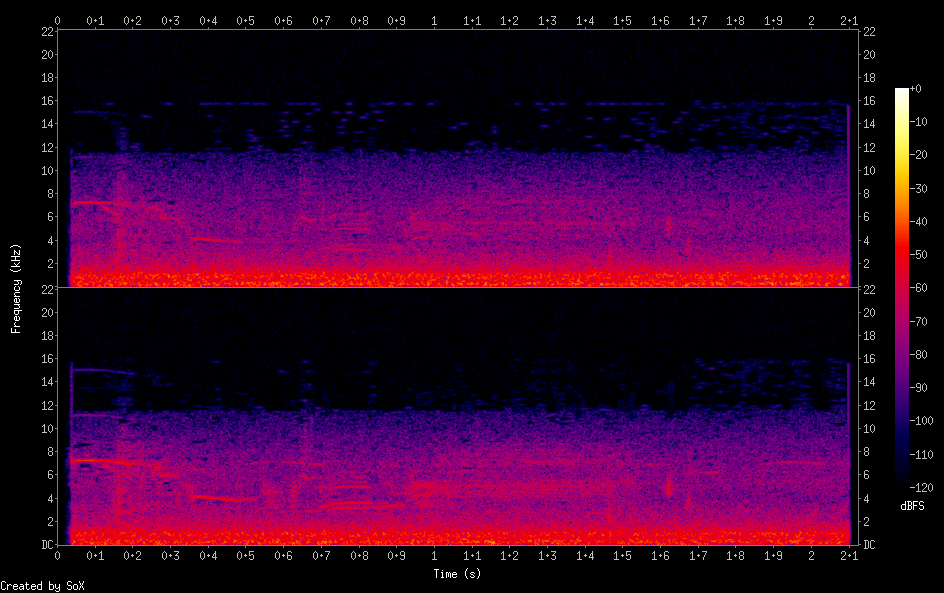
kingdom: Animalia
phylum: Chordata
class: Aves
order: Passeriformes
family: Fringillidae
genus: Spinus
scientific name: Spinus spinus
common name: Eurasian siskin
